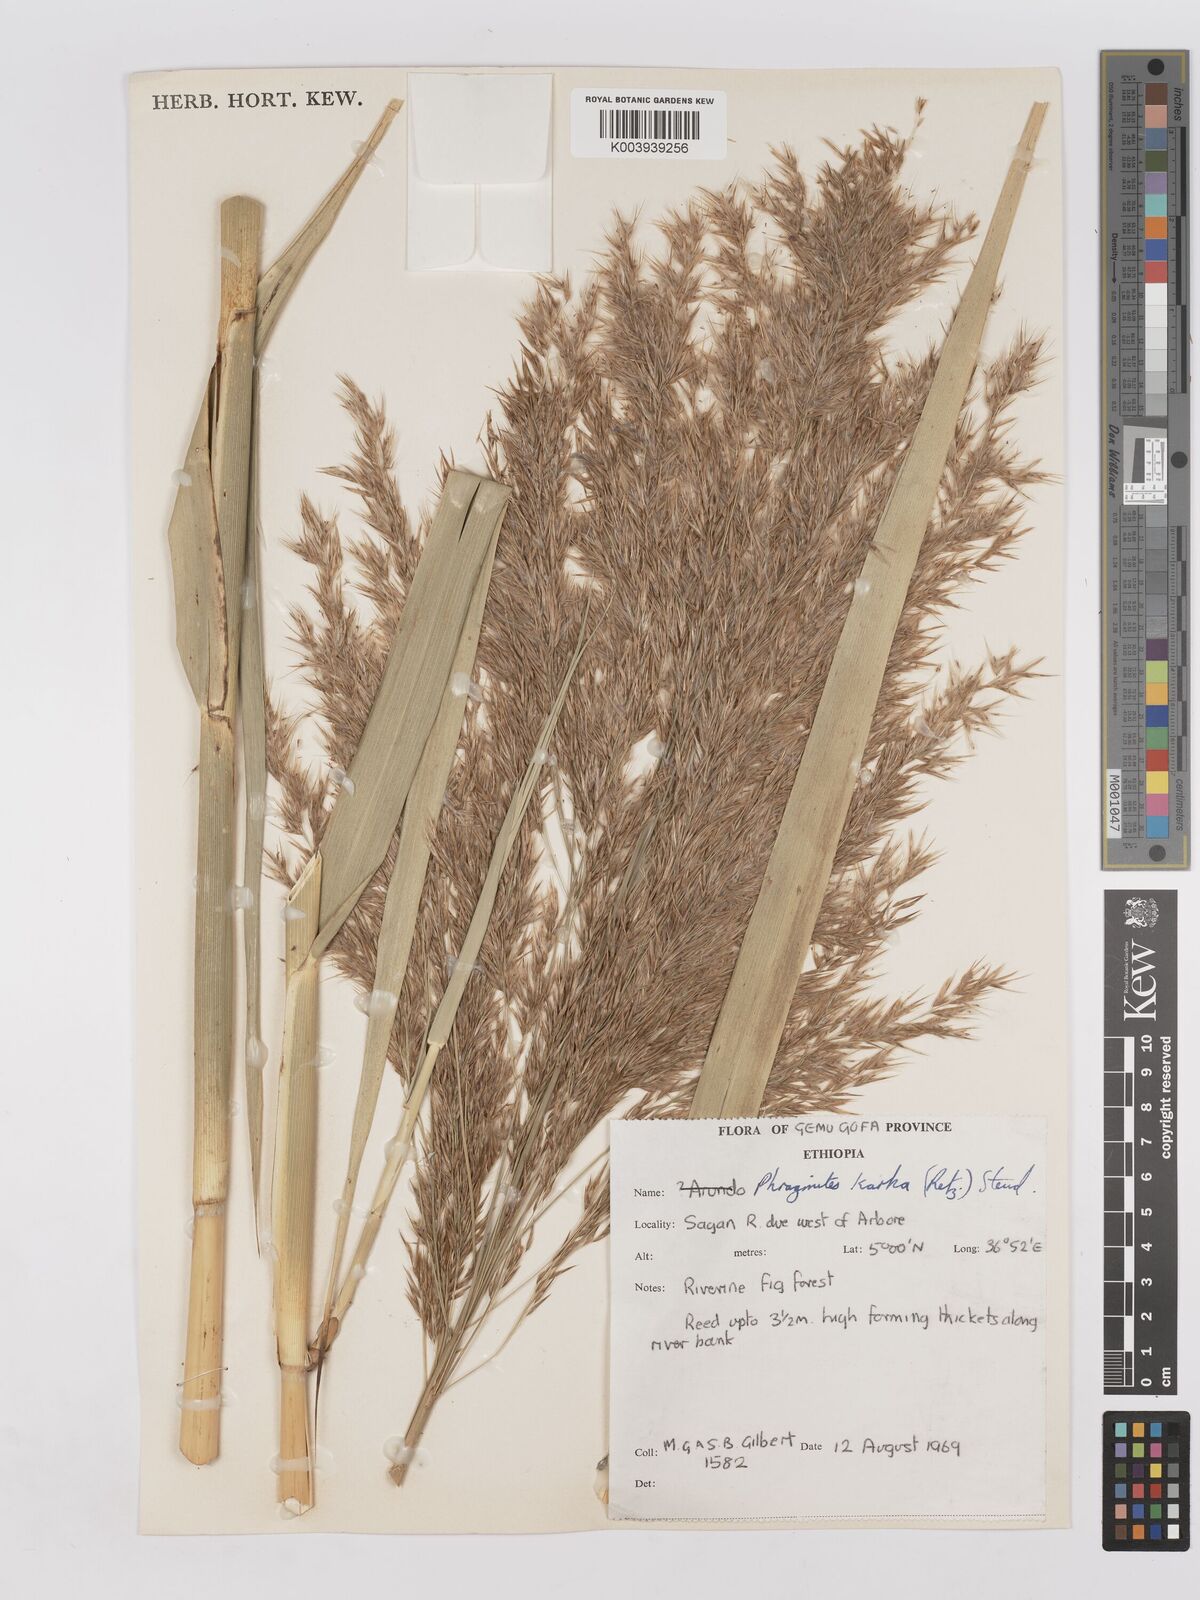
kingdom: Plantae
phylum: Tracheophyta
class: Liliopsida
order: Poales
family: Poaceae
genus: Phragmites
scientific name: Phragmites karka
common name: Tropical reed
